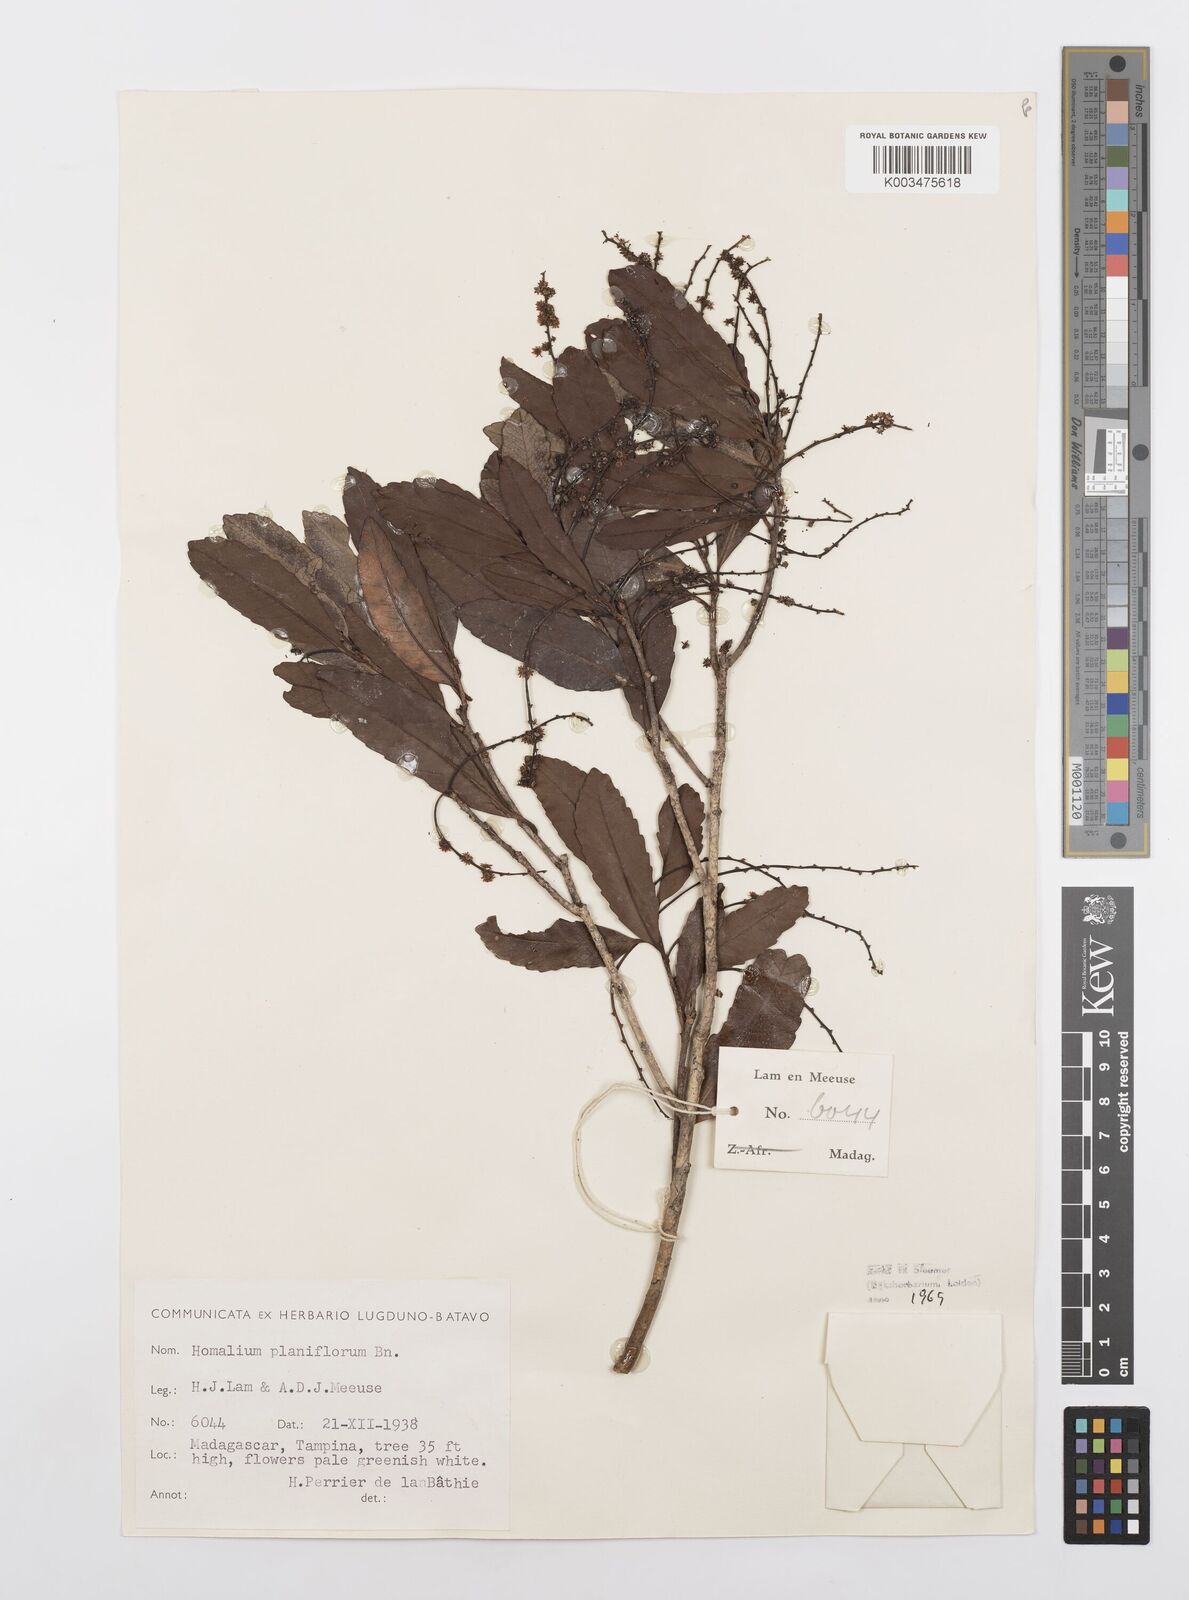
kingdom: Plantae
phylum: Tracheophyta
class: Magnoliopsida
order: Malpighiales
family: Salicaceae
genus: Homalium
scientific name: Homalium planiflorum
